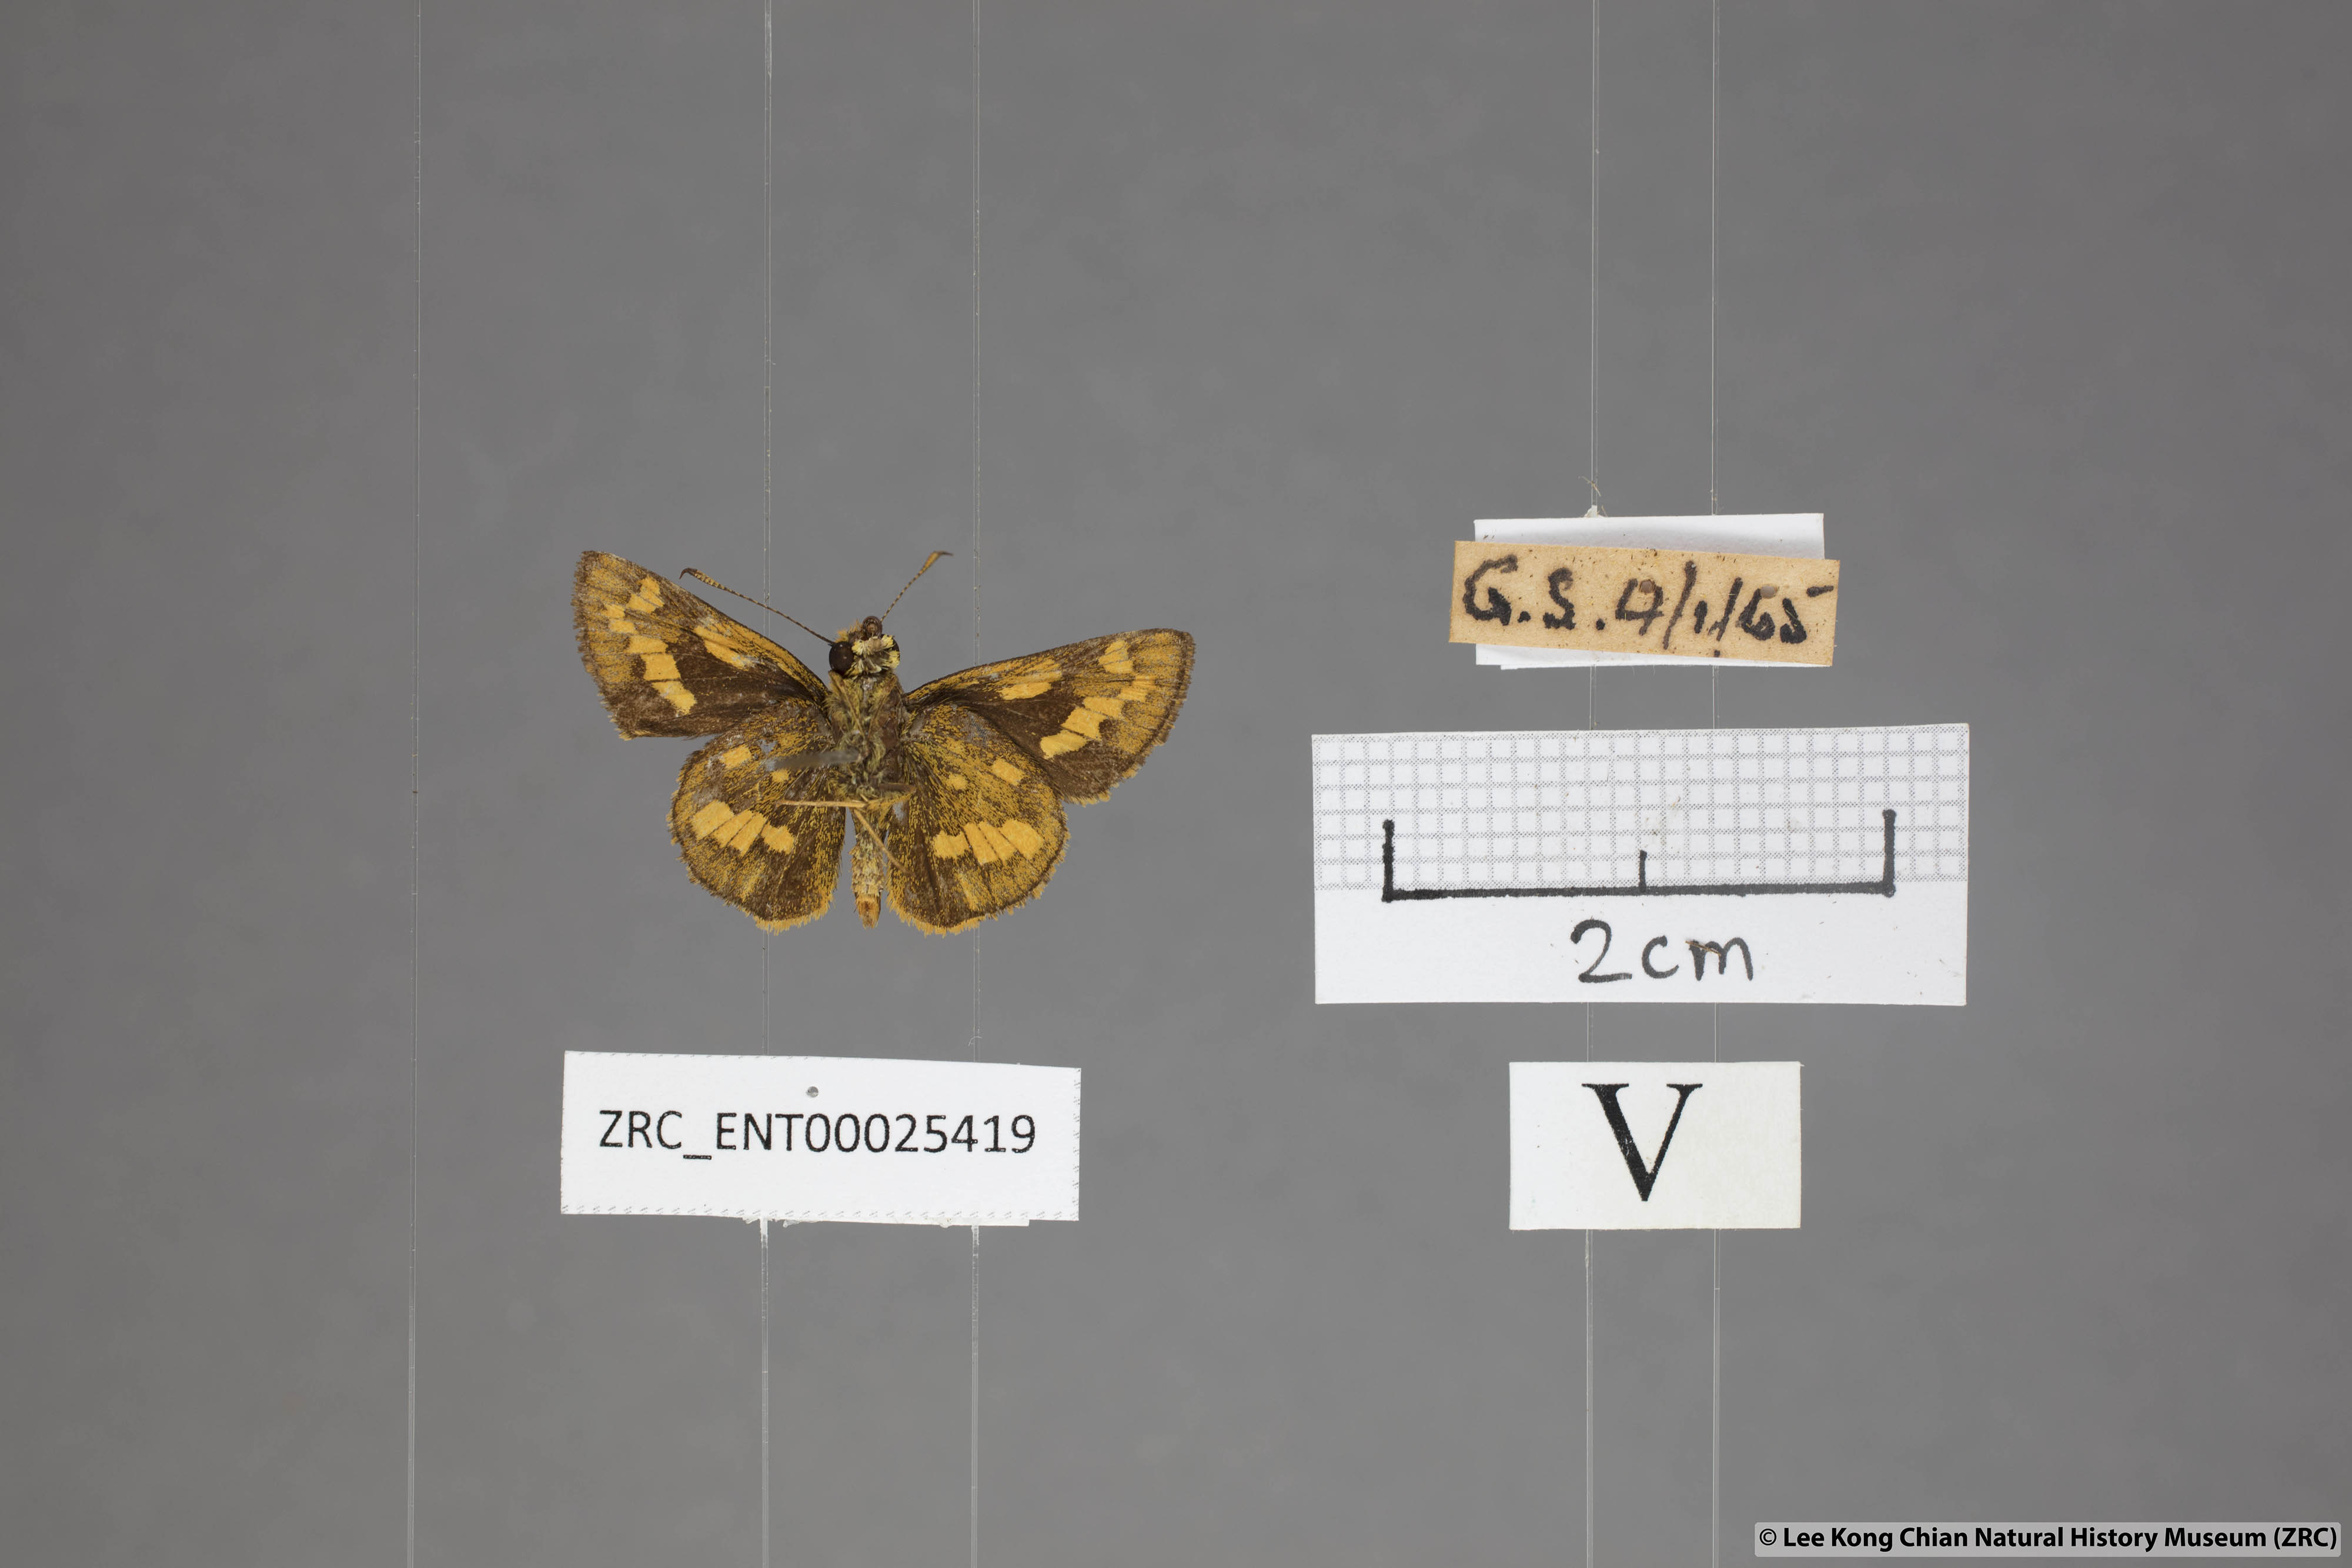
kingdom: Animalia
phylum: Arthropoda
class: Insecta
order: Lepidoptera
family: Hesperiidae
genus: Potanthus
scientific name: Potanthus omaha
